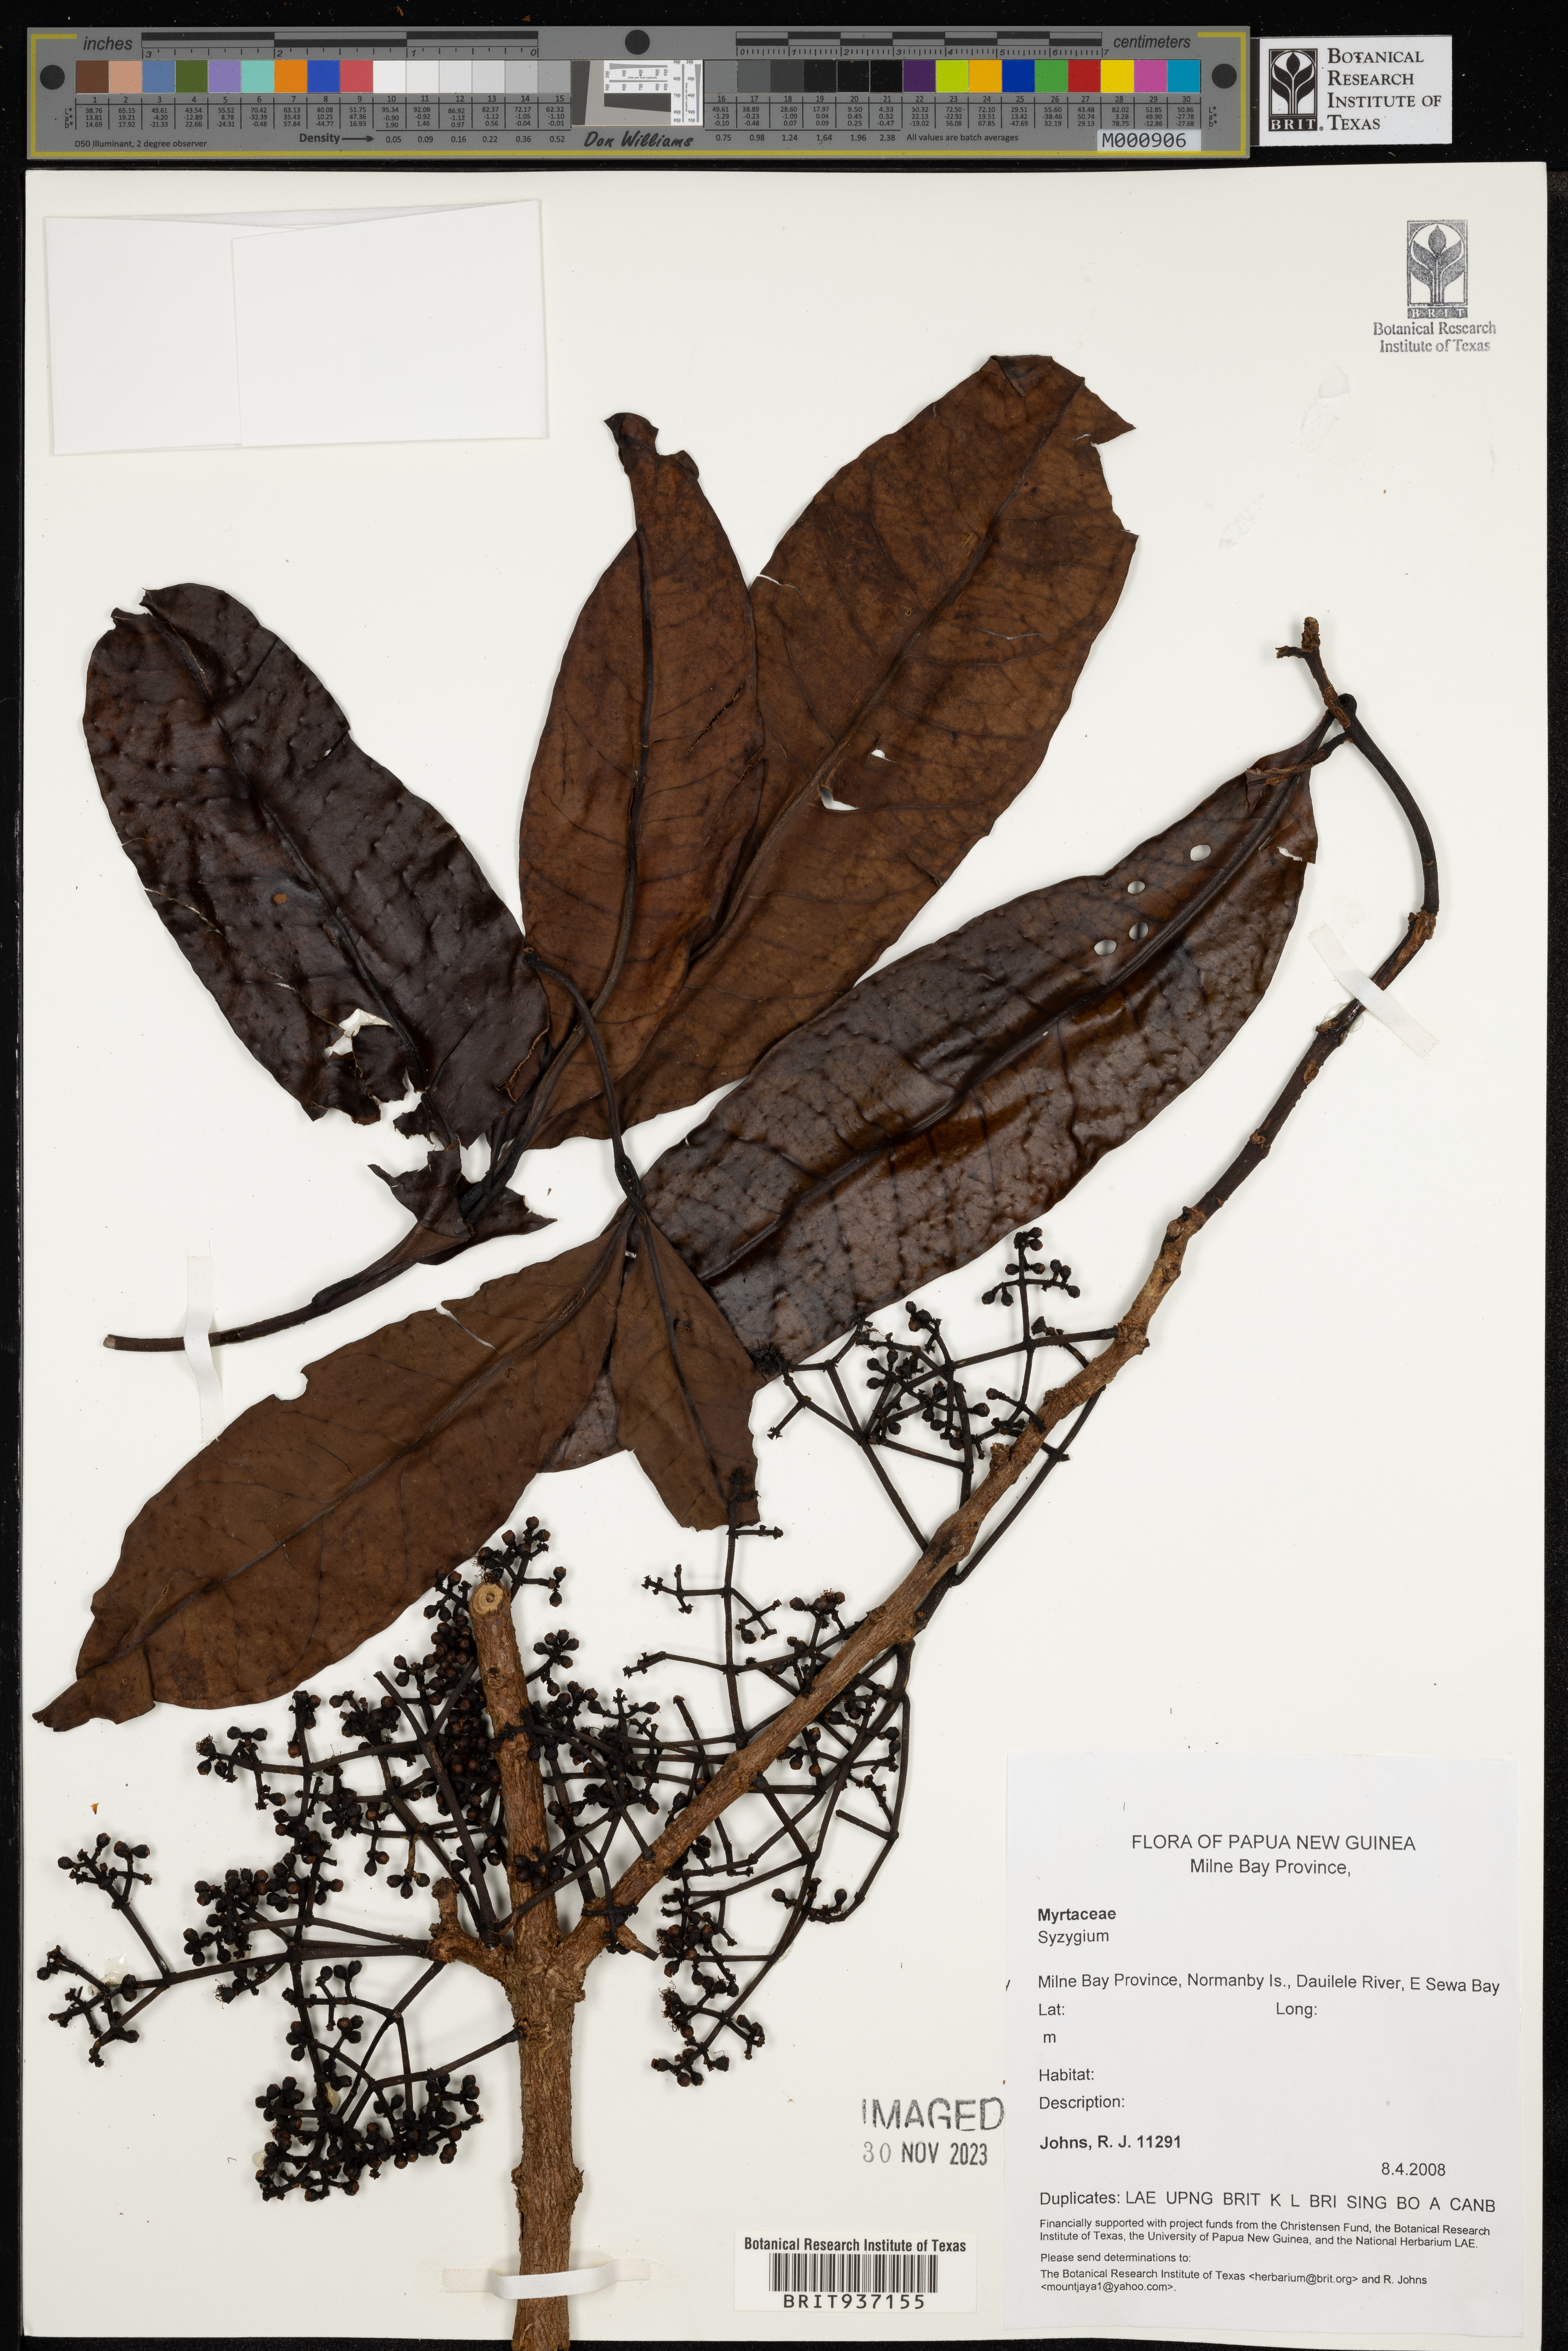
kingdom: Plantae
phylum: Tracheophyta
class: Magnoliopsida
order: Myrtales
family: Myrtaceae
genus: Syzygium
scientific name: Syzygium
